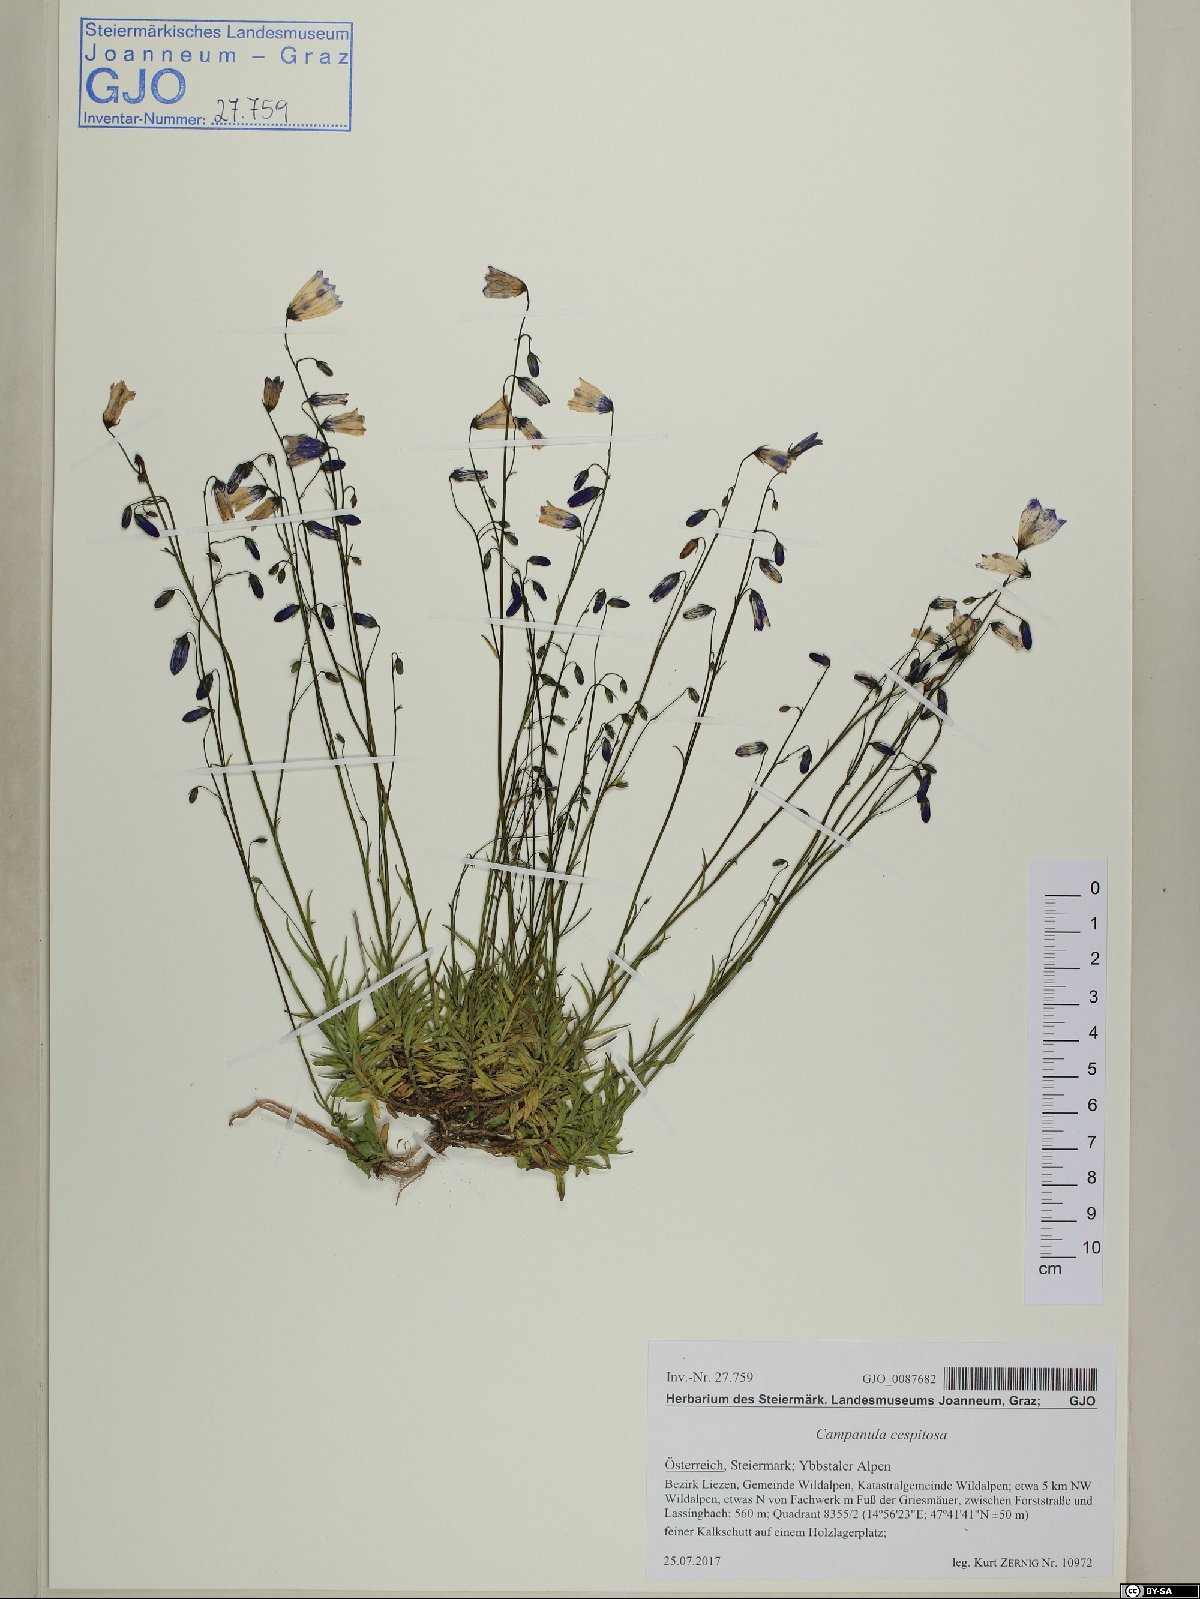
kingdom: Plantae
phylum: Tracheophyta
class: Magnoliopsida
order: Asterales
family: Campanulaceae
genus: Campanula
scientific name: Campanula cespitosa
